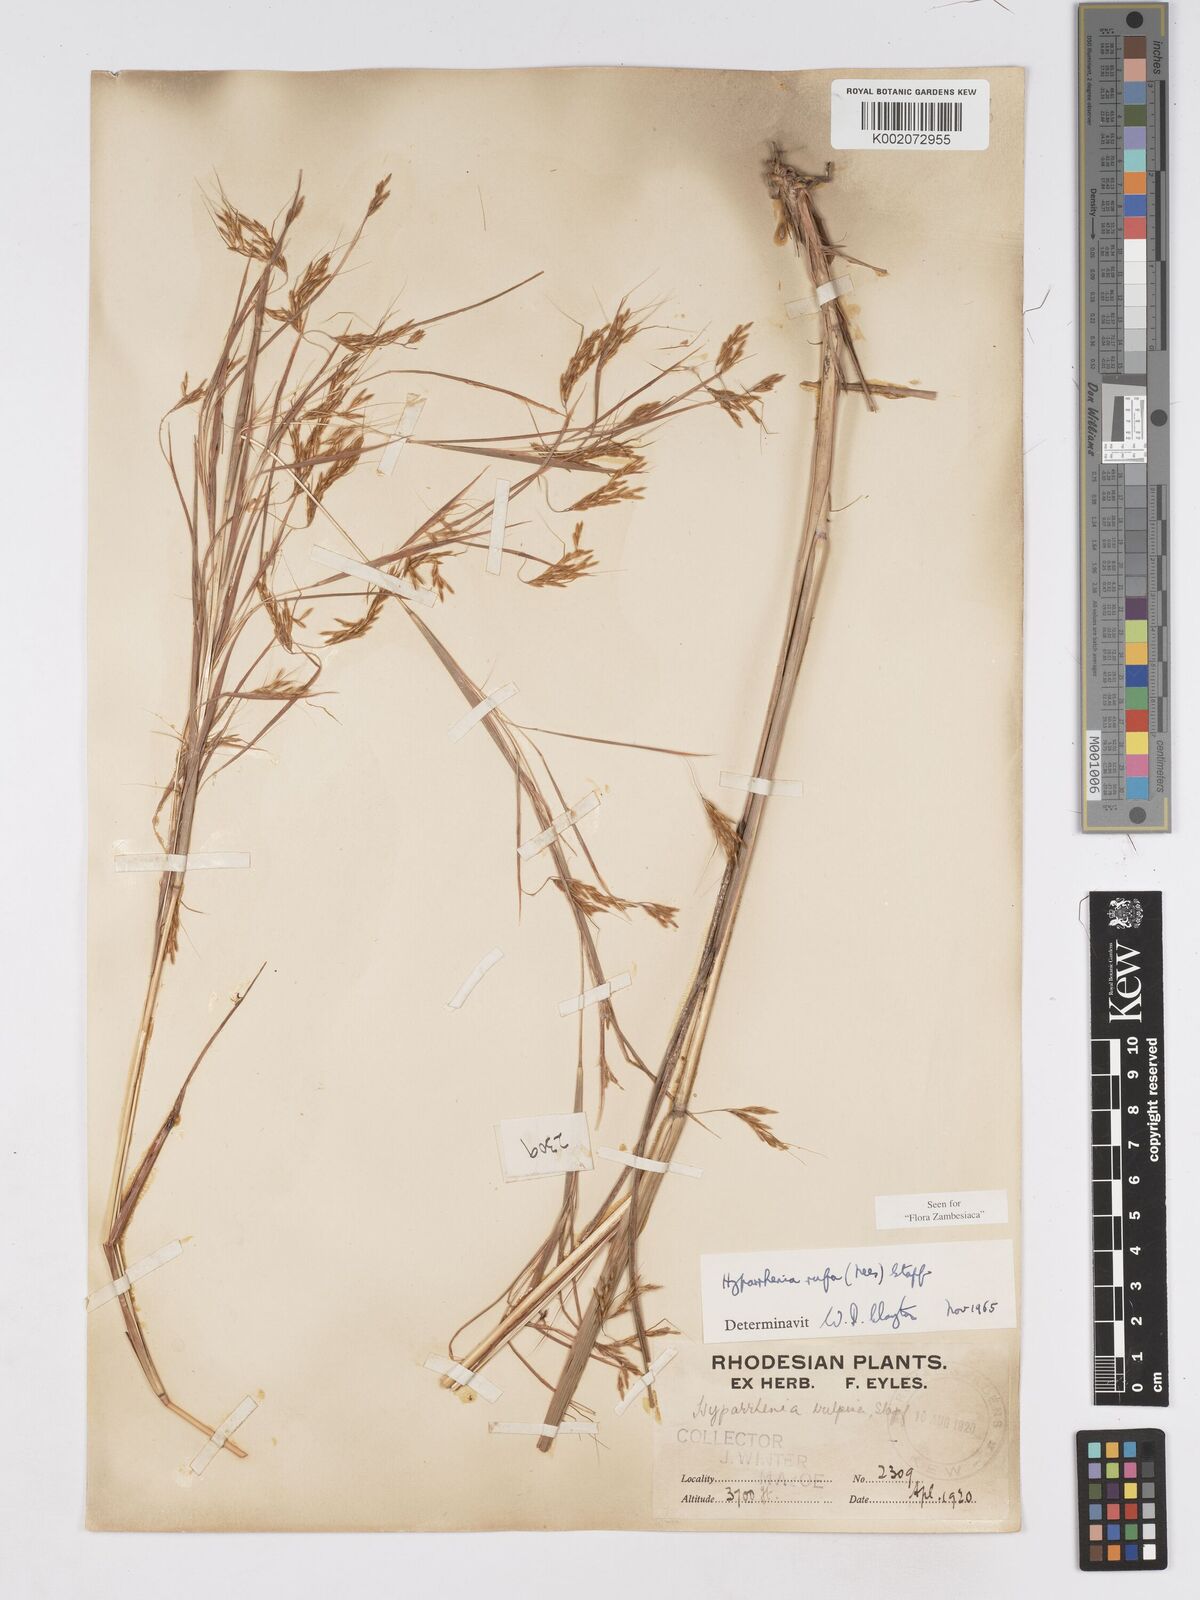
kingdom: Plantae
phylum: Tracheophyta
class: Liliopsida
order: Poales
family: Poaceae
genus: Hyparrhenia
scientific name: Hyparrhenia rufa
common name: Jaraguagrass
